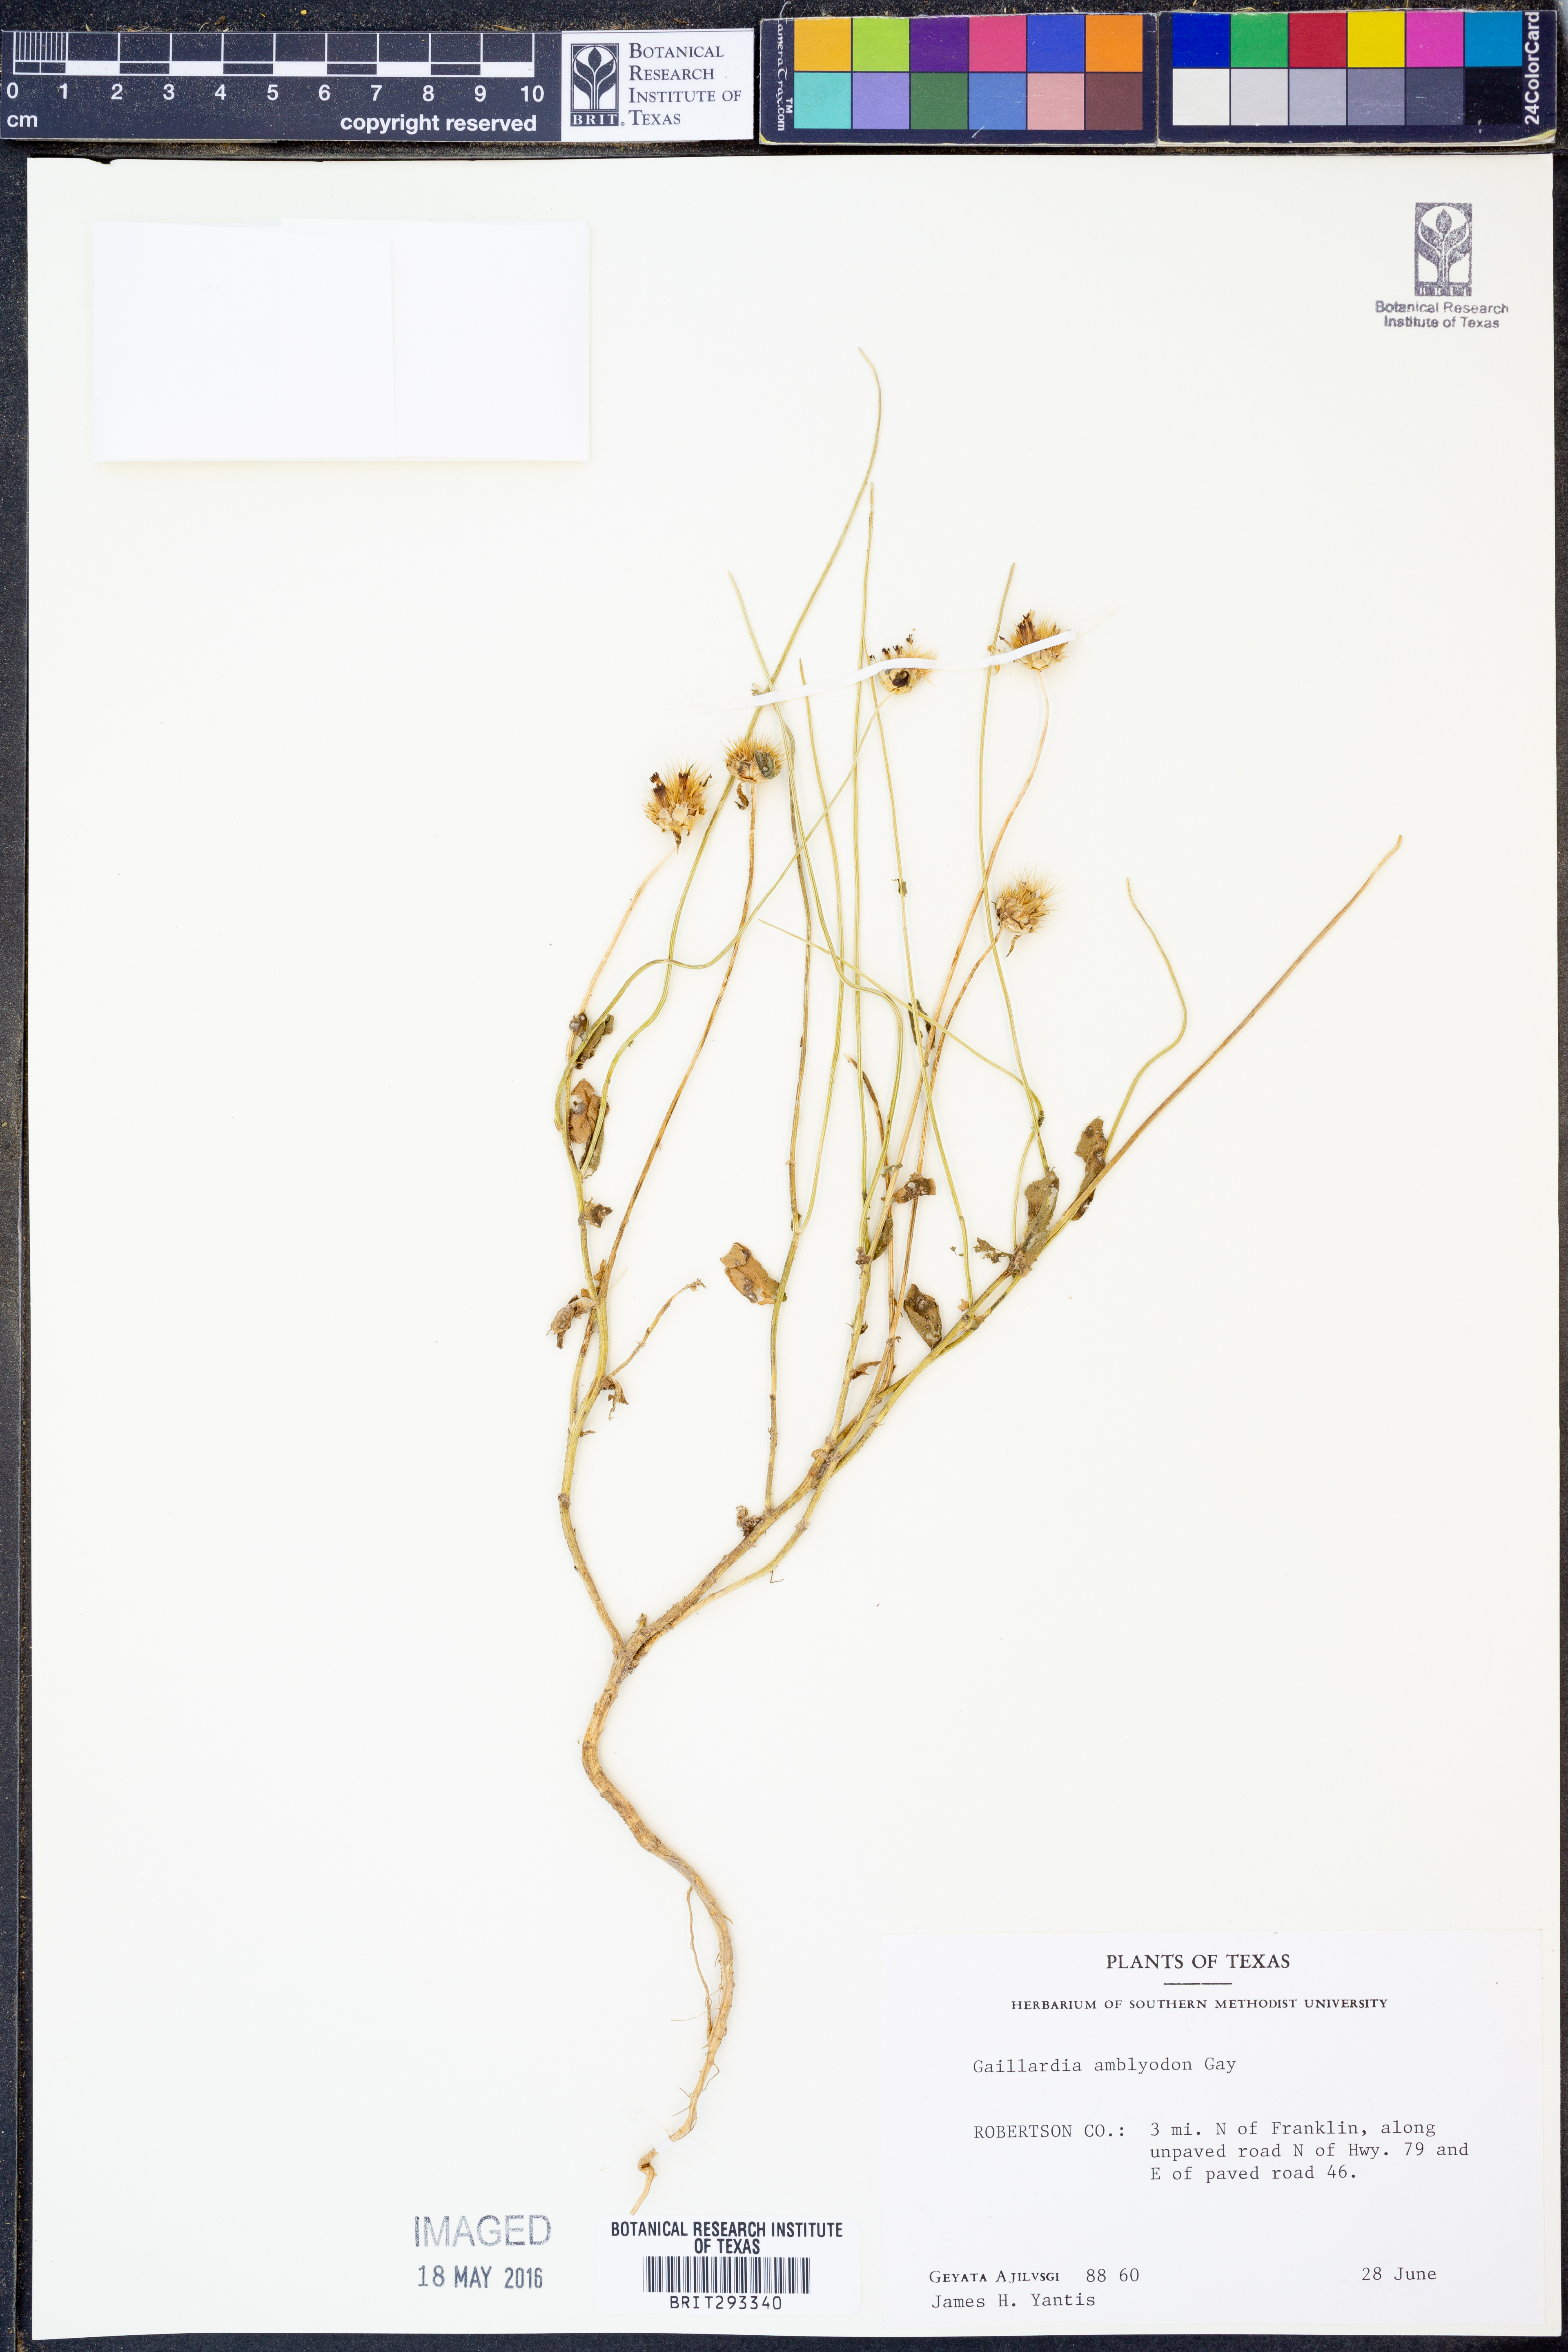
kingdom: Plantae
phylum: Tracheophyta
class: Magnoliopsida
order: Asterales
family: Asteraceae
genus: Gaillardia
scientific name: Gaillardia amblyodon
